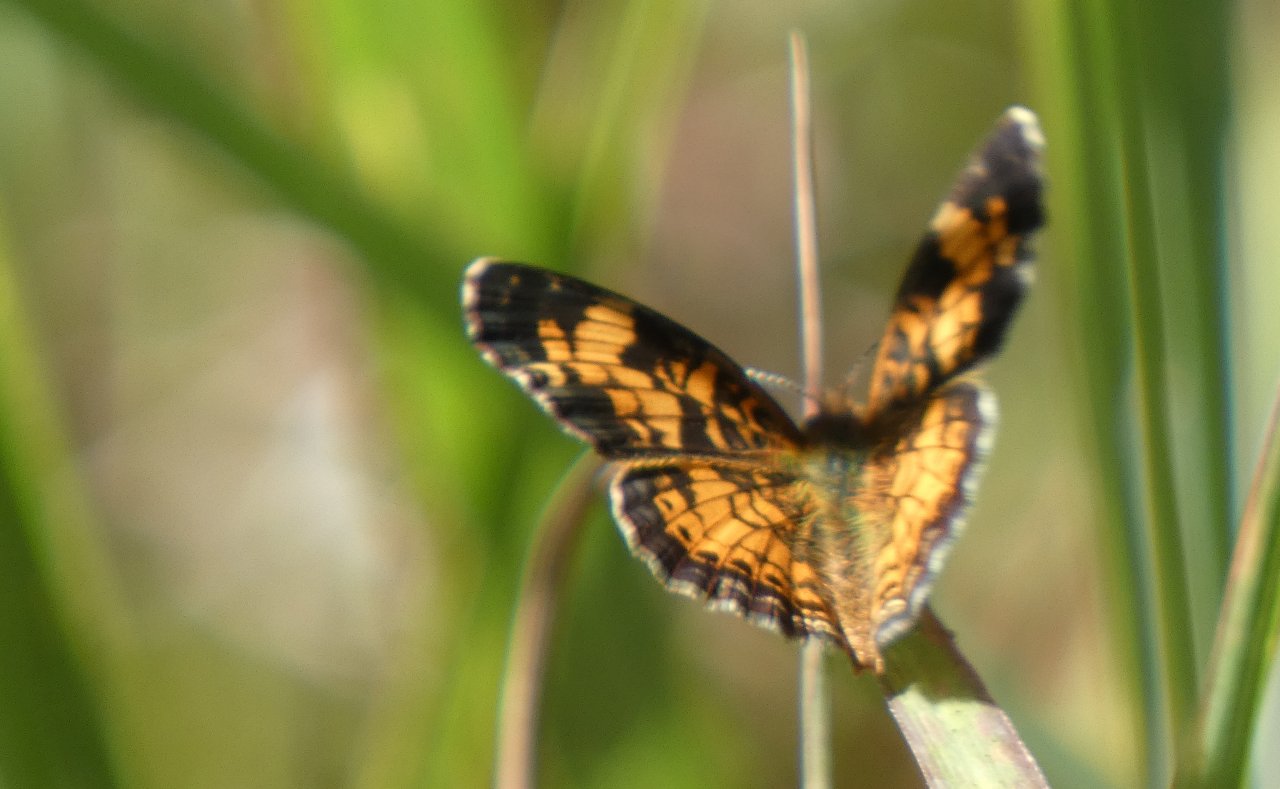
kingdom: Animalia
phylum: Arthropoda
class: Insecta
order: Lepidoptera
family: Nymphalidae
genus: Phyciodes
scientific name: Phyciodes tharos
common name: Pearl Crescent
